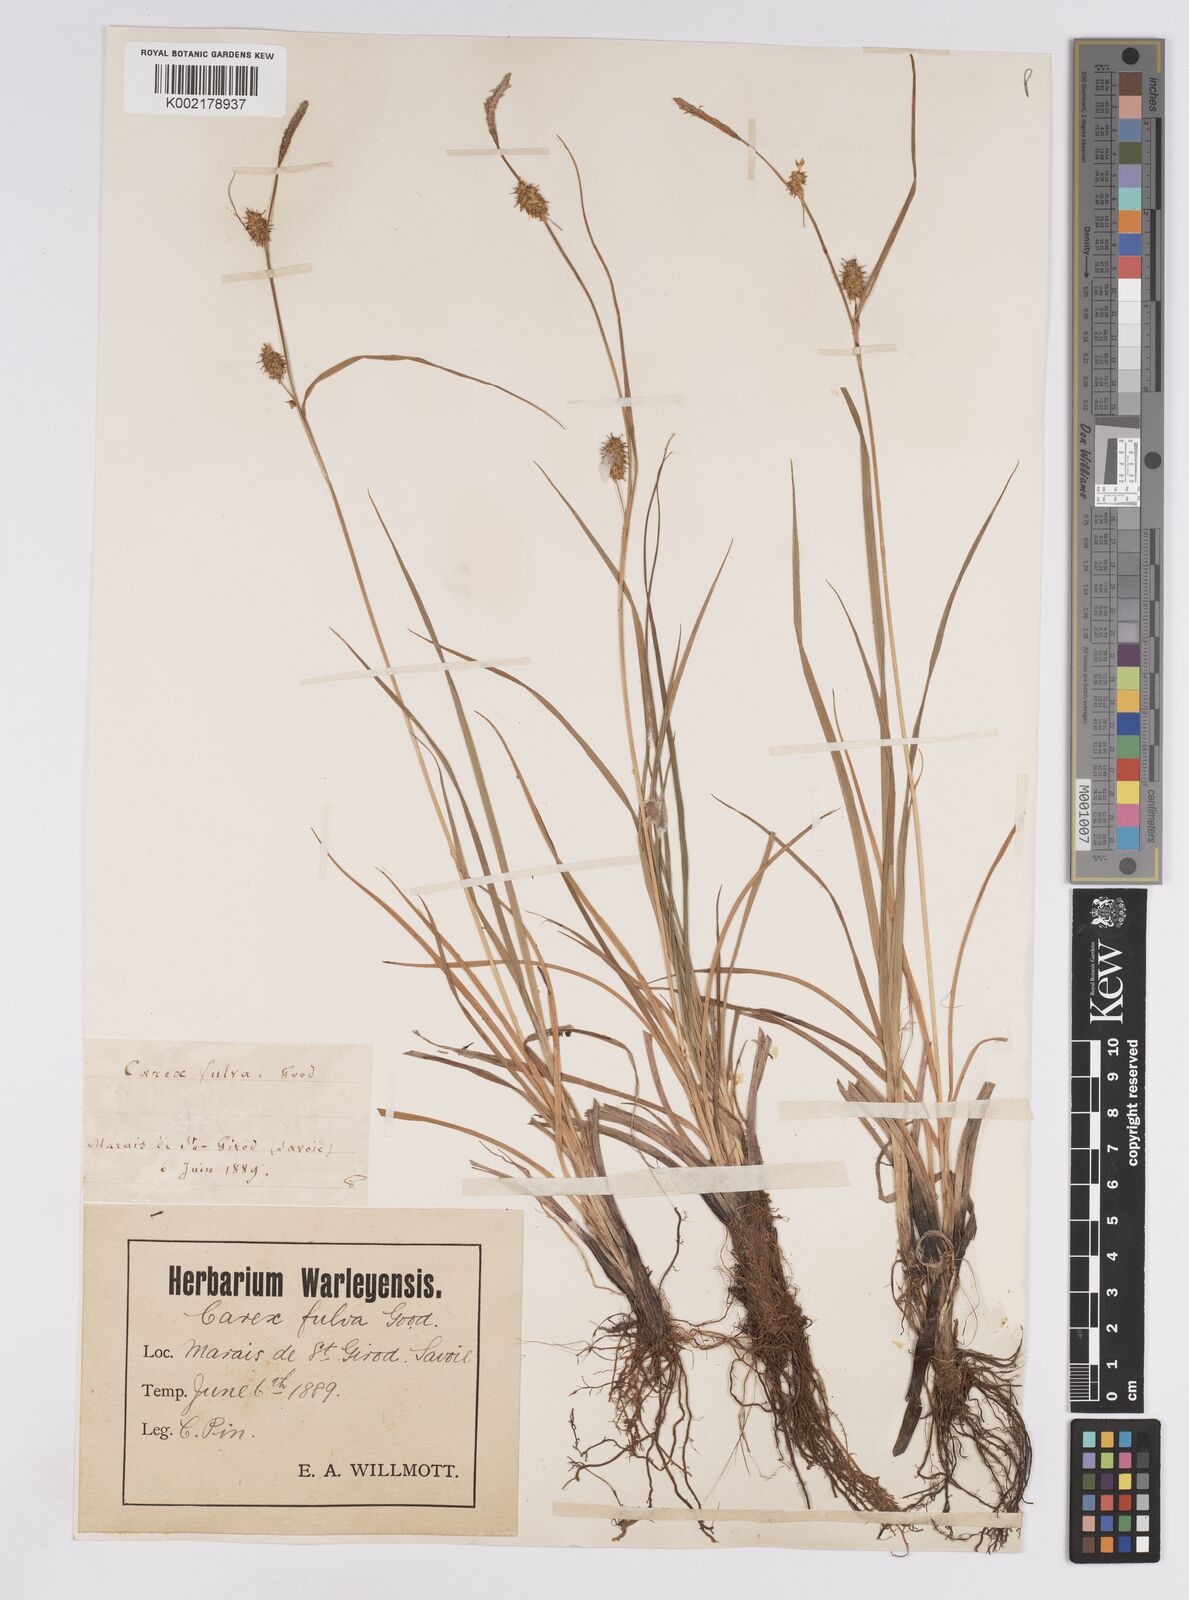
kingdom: Plantae
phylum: Tracheophyta
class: Liliopsida
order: Poales
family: Cyperaceae
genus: Carex
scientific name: Carex lepidocarpa
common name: Long-stalked yellow-sedge
